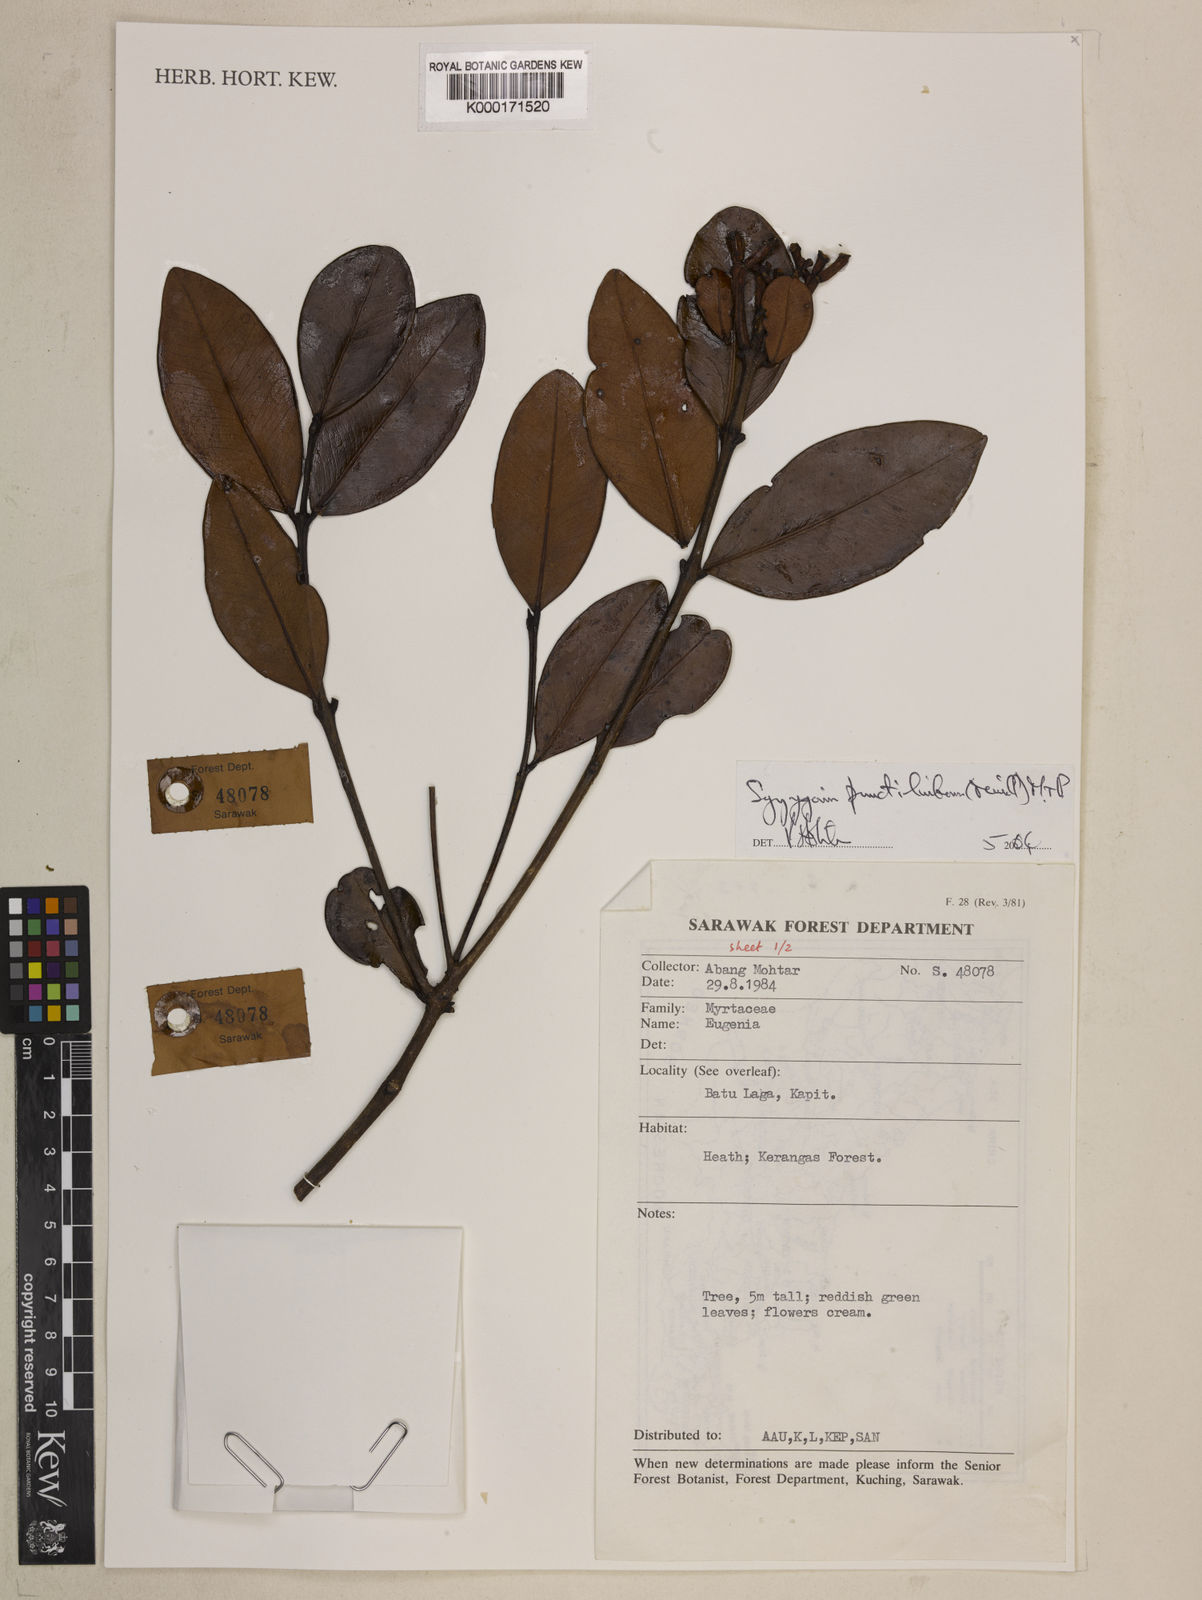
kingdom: Plantae
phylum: Tracheophyta
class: Magnoliopsida
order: Myrtales
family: Myrtaceae
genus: Syzygium
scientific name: Syzygium punctilimbum
